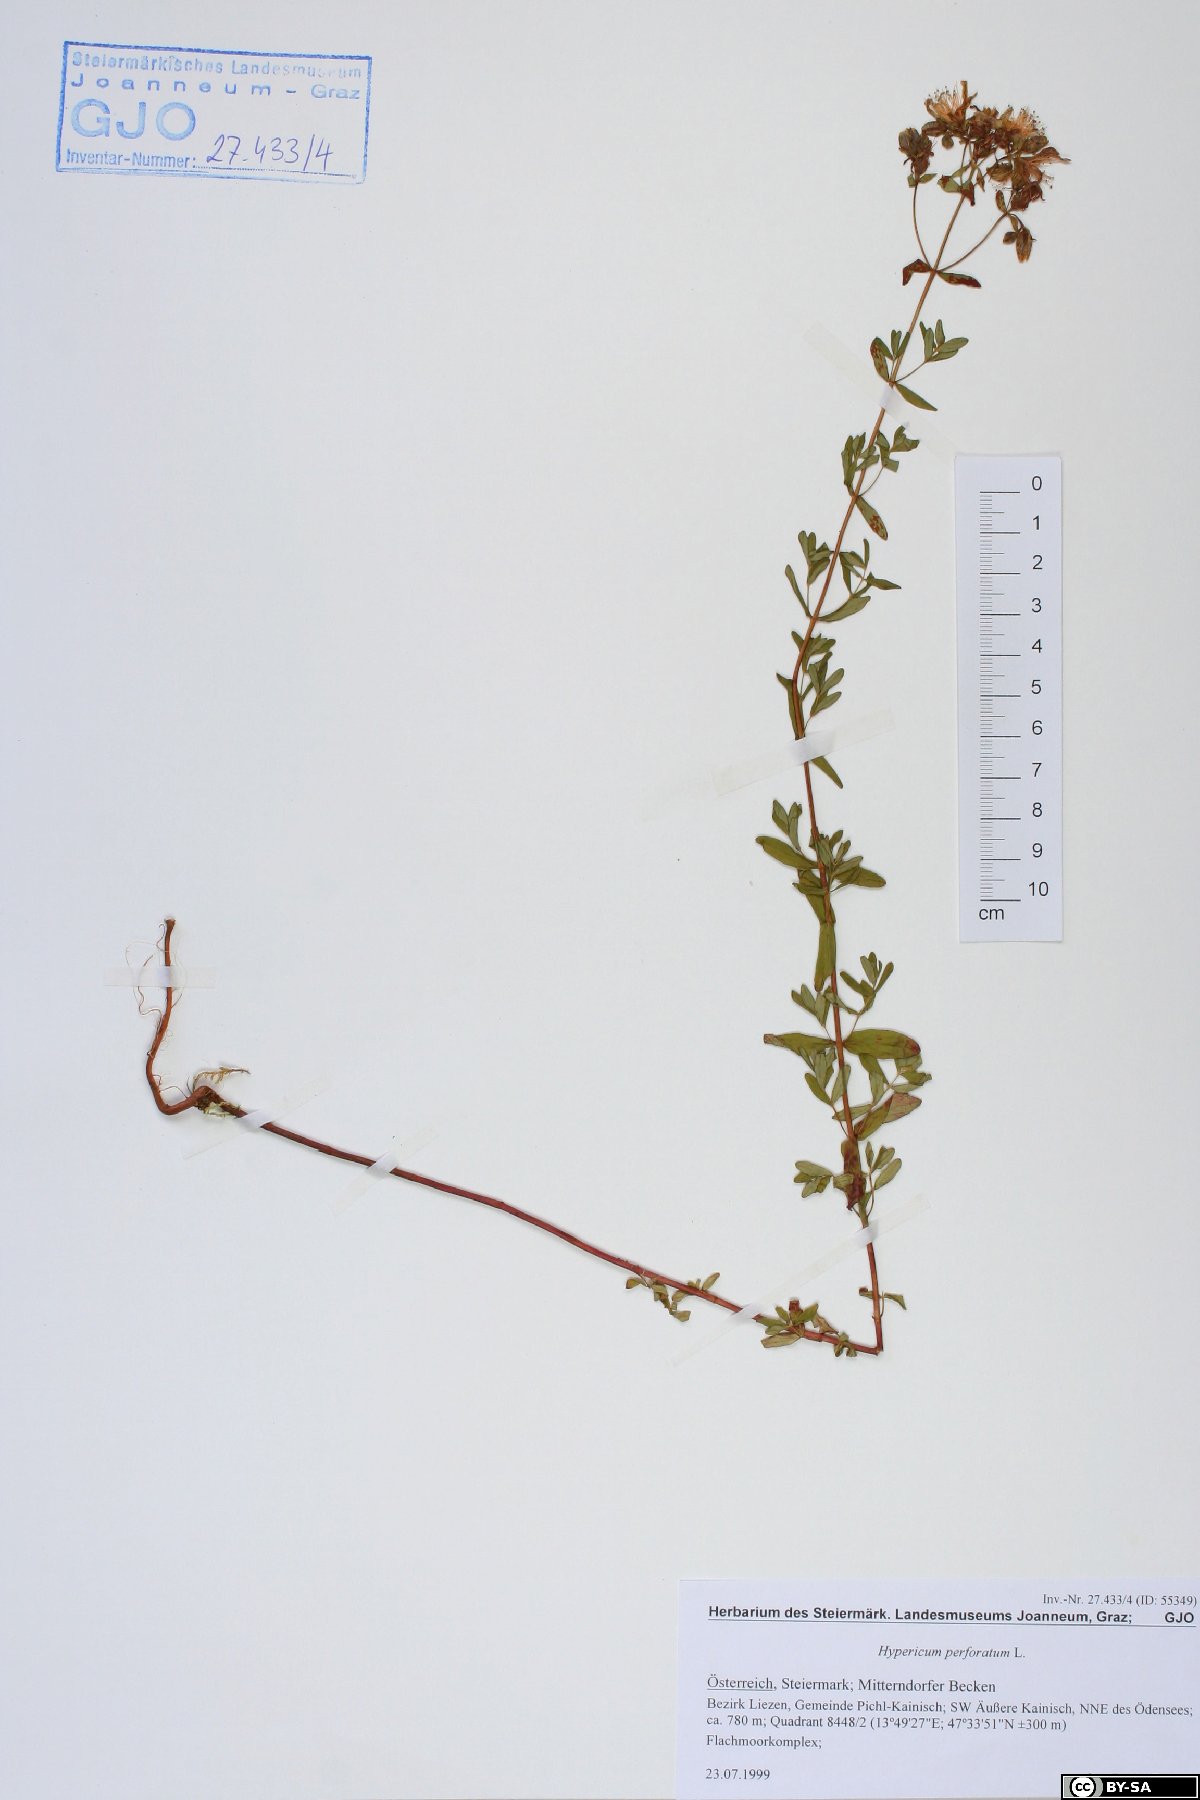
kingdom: Plantae
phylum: Tracheophyta
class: Magnoliopsida
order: Malpighiales
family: Hypericaceae
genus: Hypericum
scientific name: Hypericum perforatum
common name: Common st. johnswort
